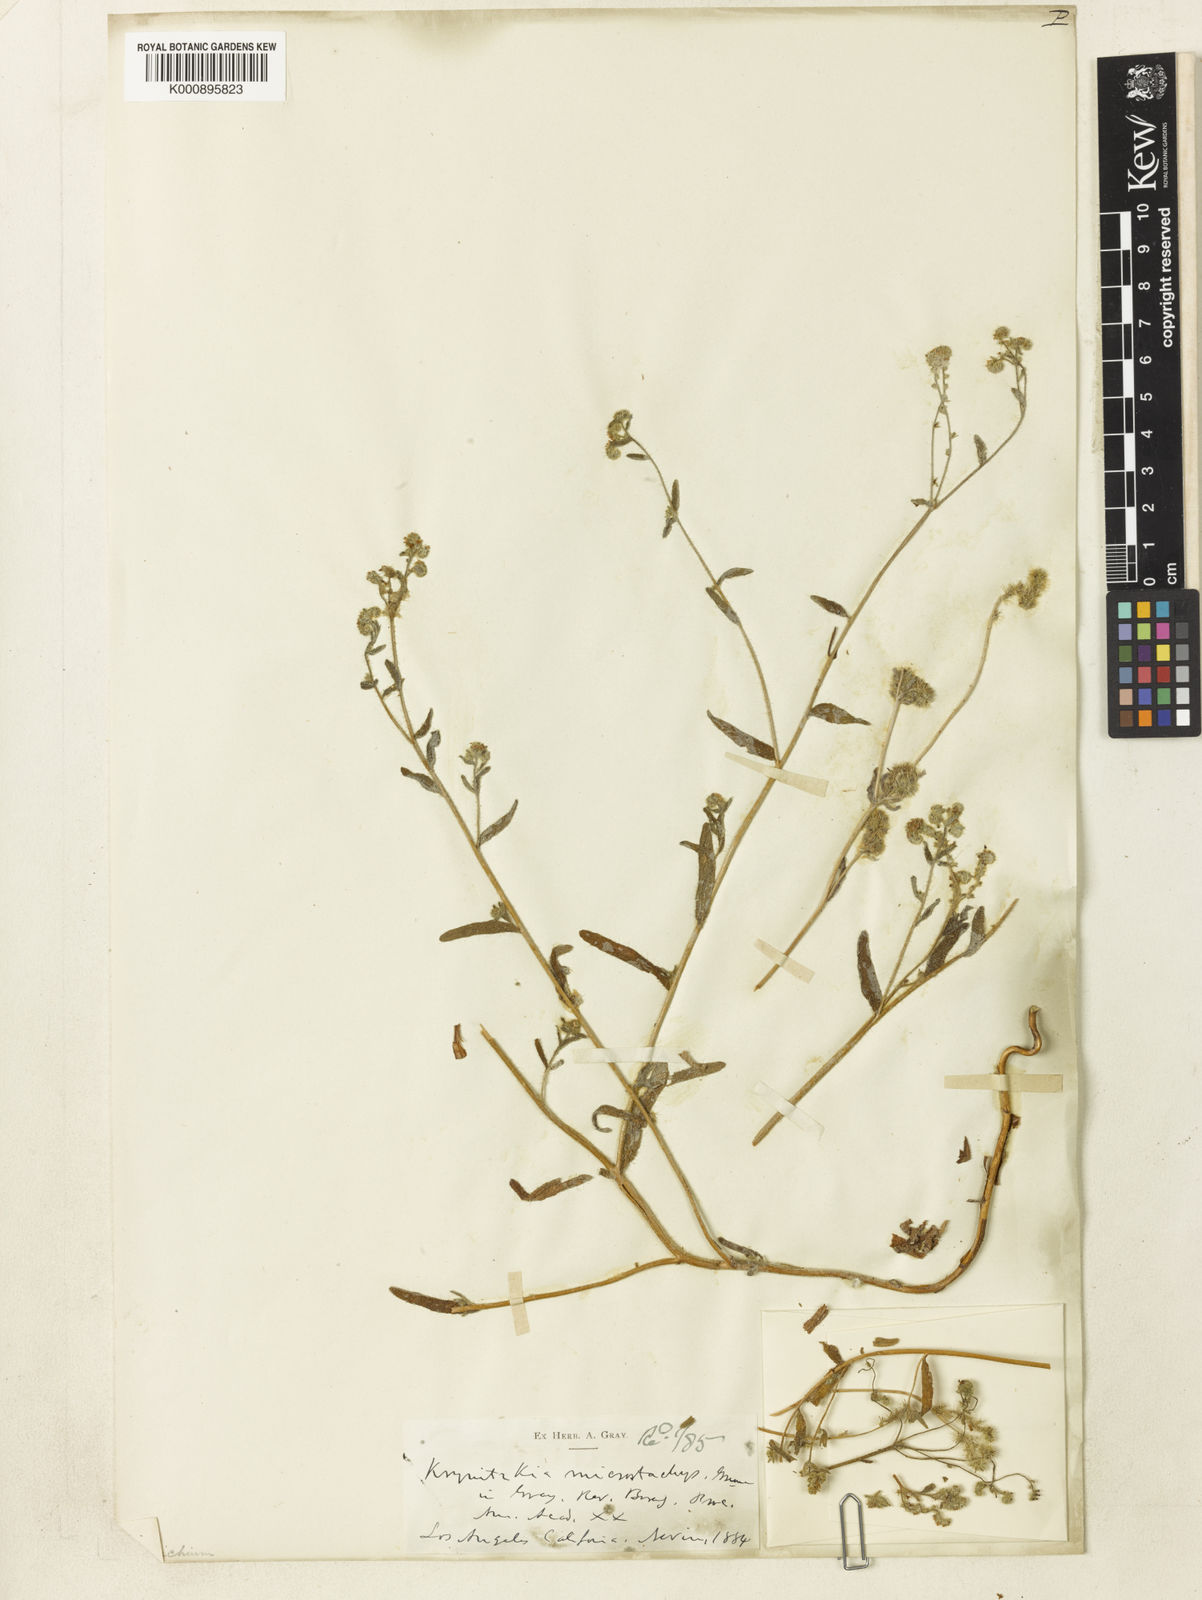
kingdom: Plantae
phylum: Tracheophyta
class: Magnoliopsida
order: Boraginales
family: Boraginaceae
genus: Cryptantha
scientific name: Cryptantha microstachys
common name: Tejon cryptantha
